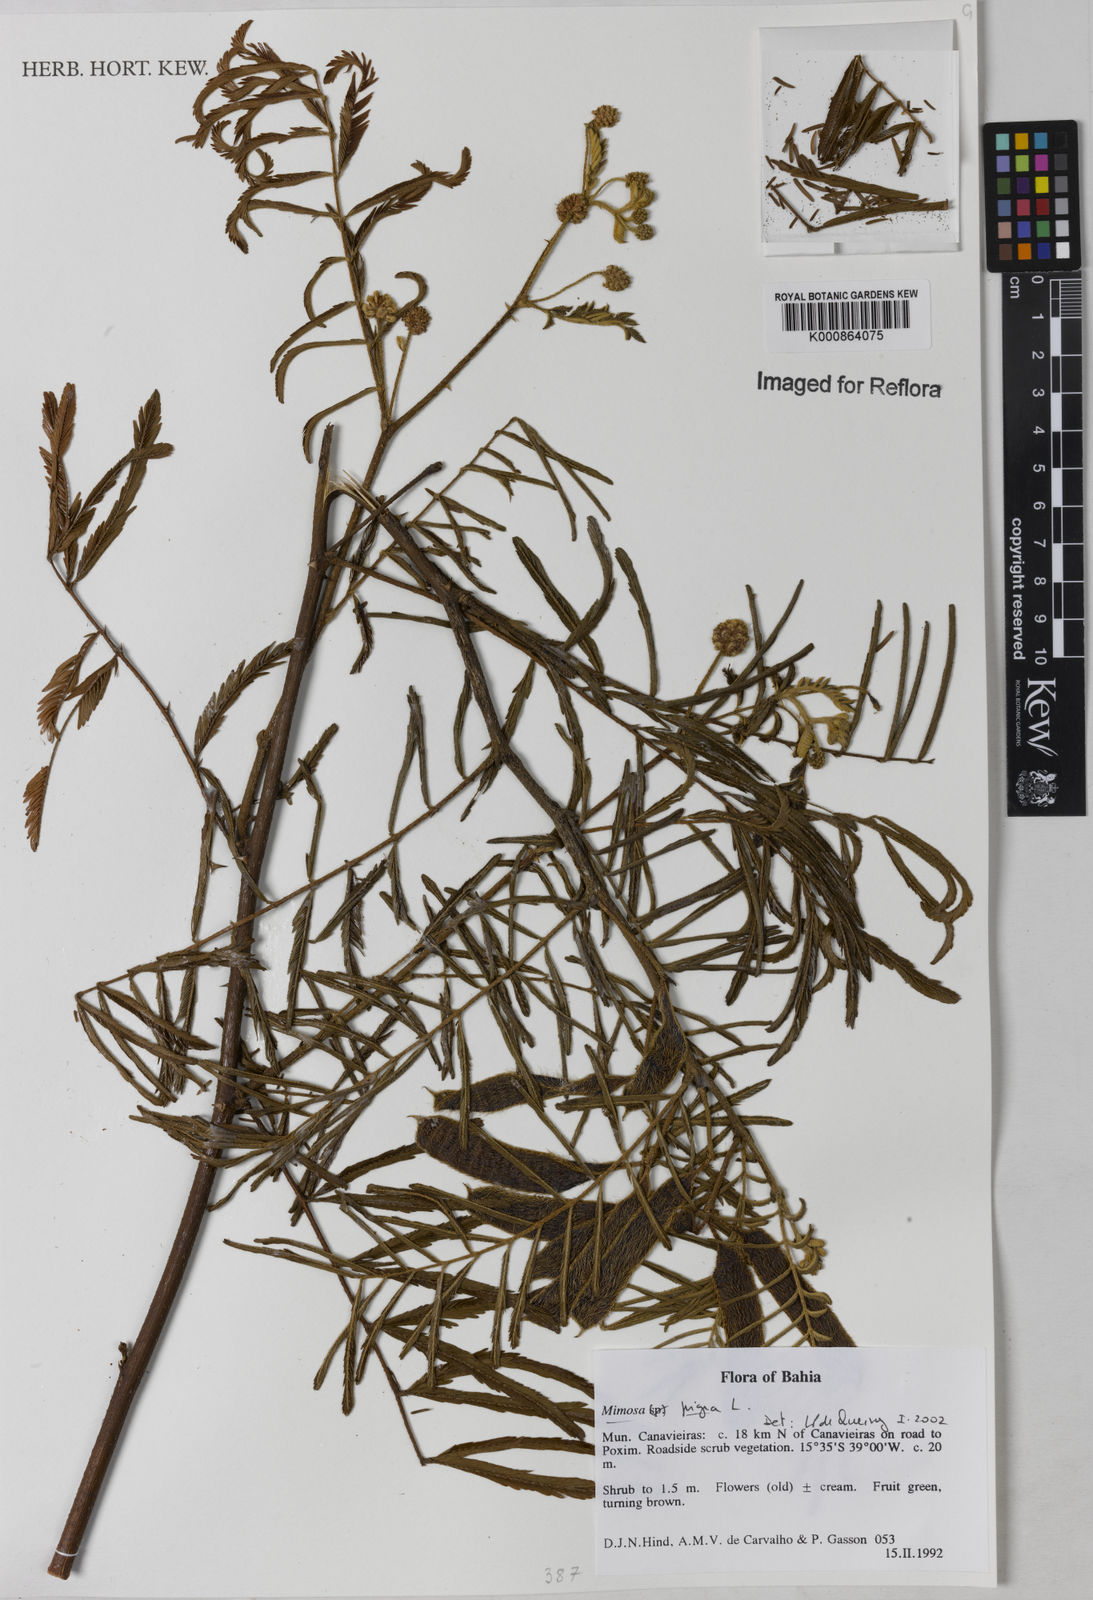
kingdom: Plantae
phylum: Tracheophyta
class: Magnoliopsida
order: Fabales
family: Fabaceae
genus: Mimosa
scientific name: Mimosa pigra
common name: Black mimosa
